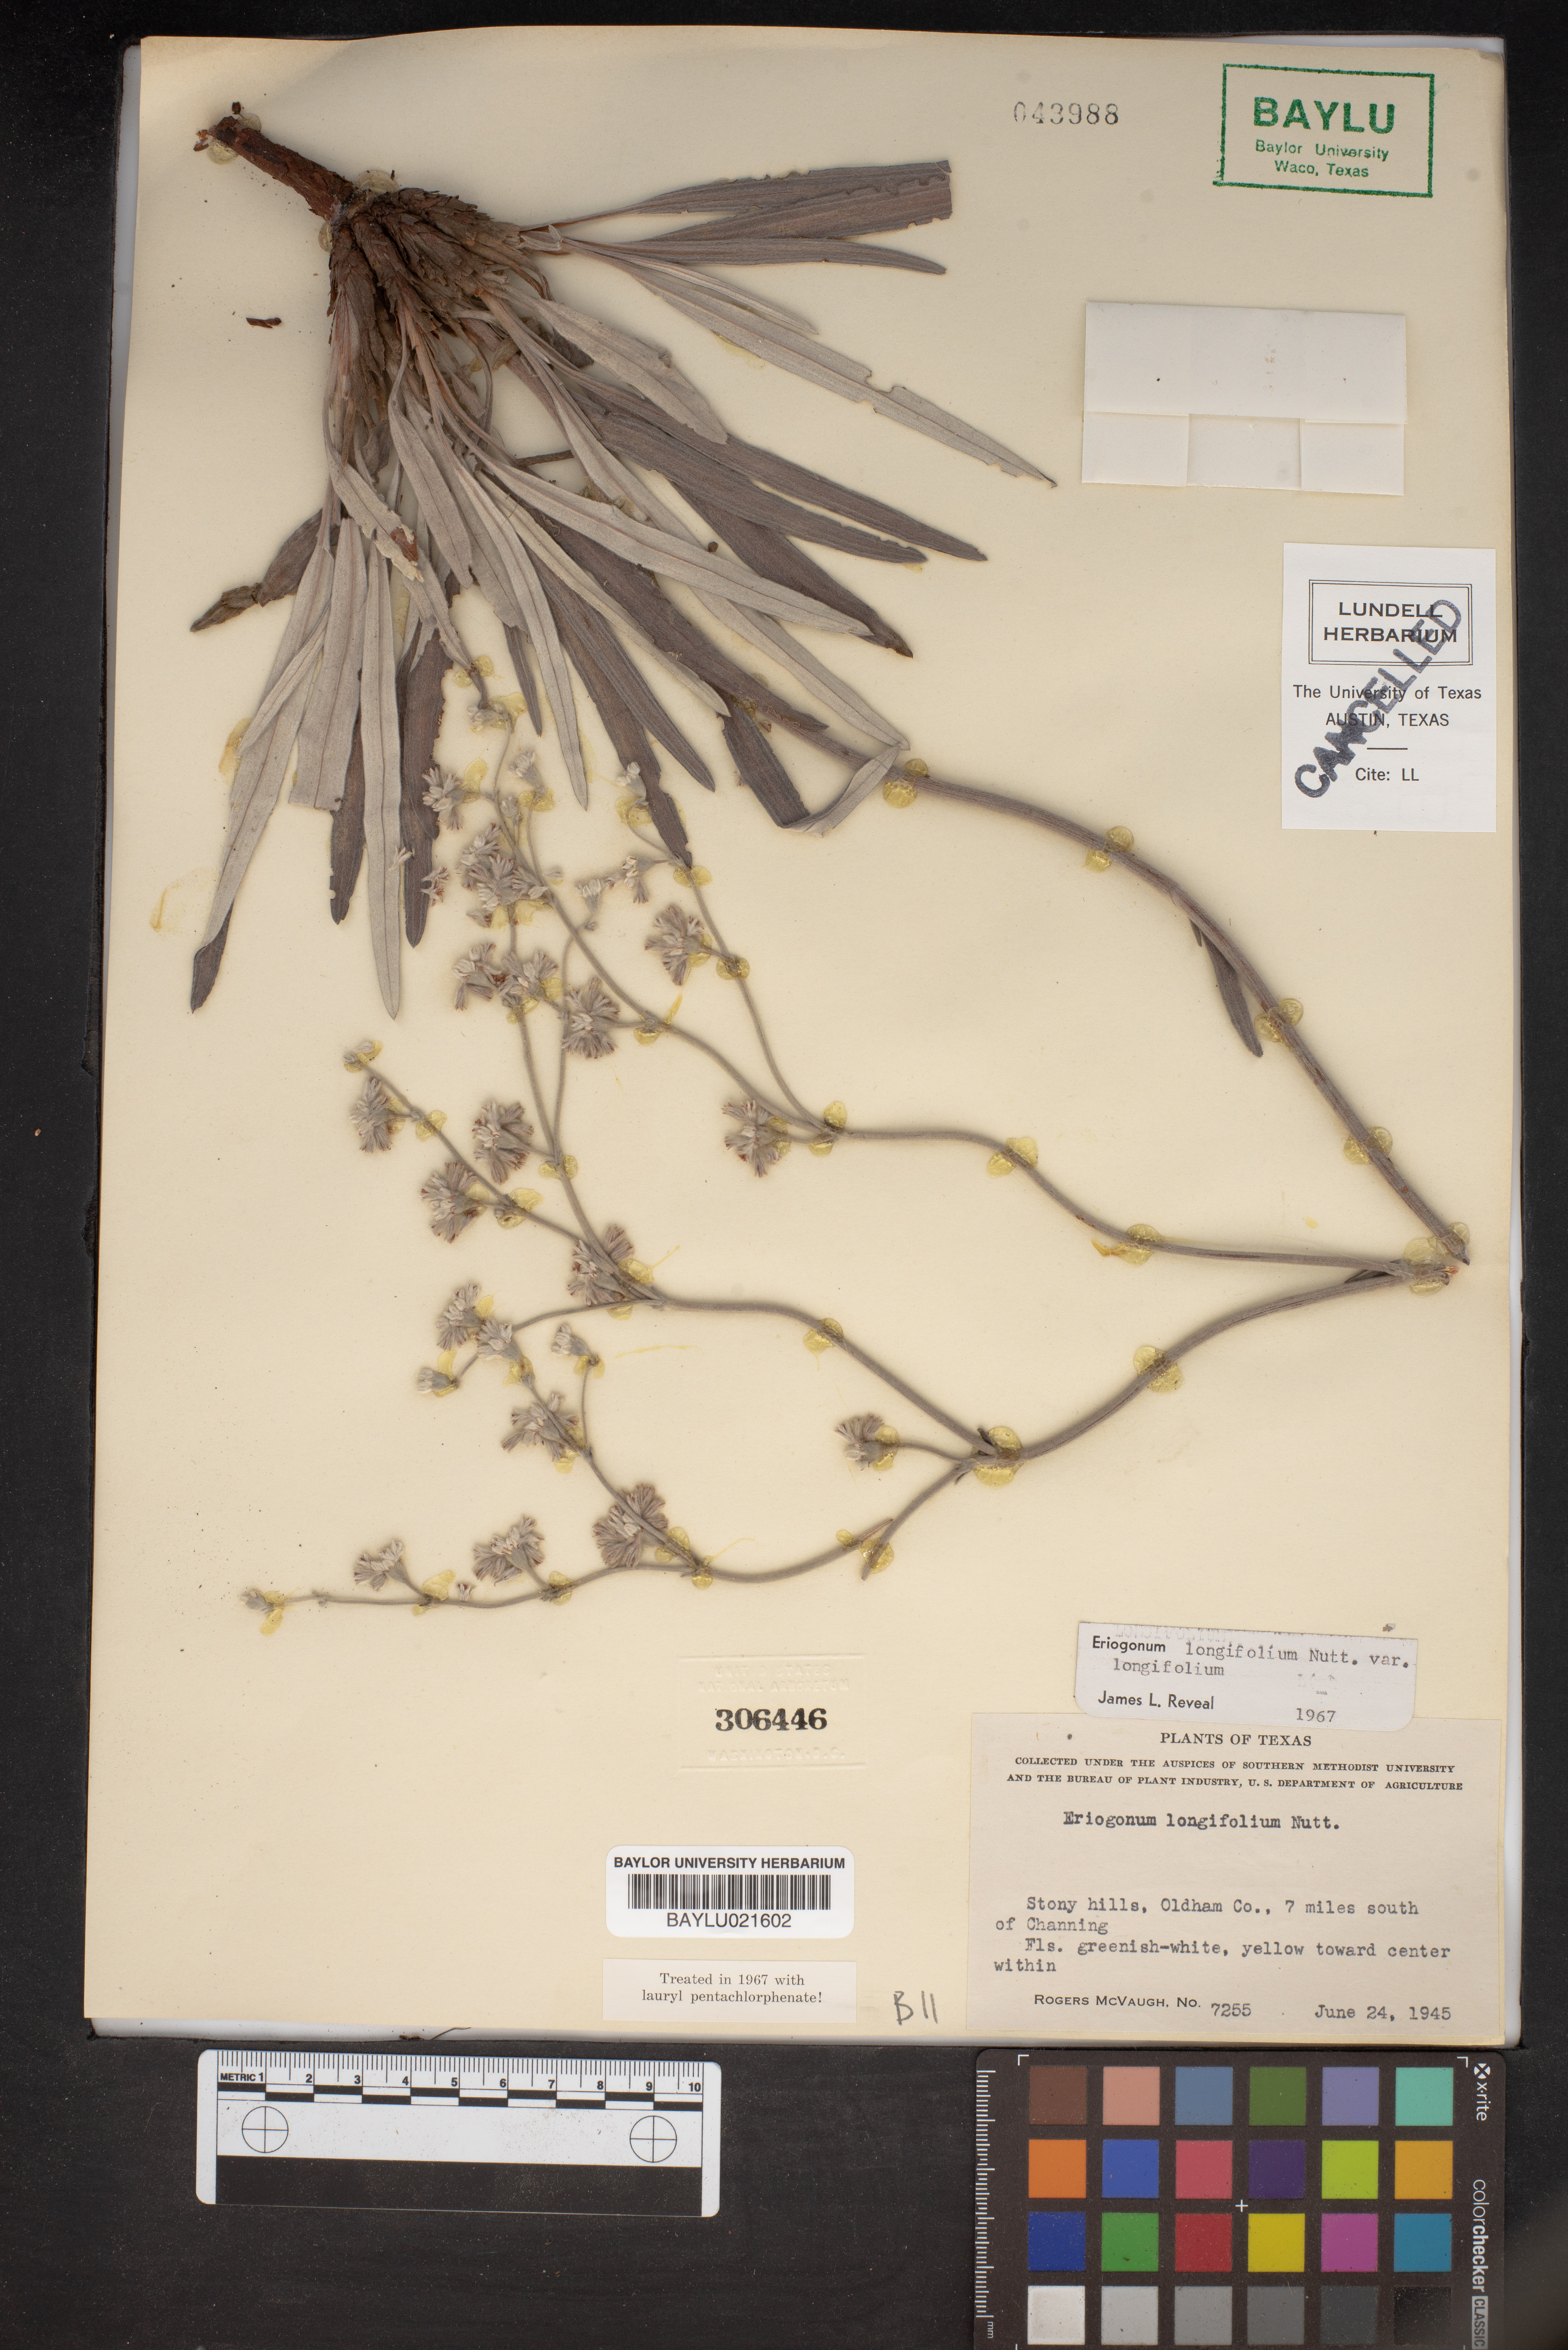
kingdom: Plantae
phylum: Tracheophyta
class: Magnoliopsida
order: Caryophyllales
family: Polygonaceae
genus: Eriogonum
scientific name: Eriogonum longifolium
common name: Longleaf wild buckwheat
